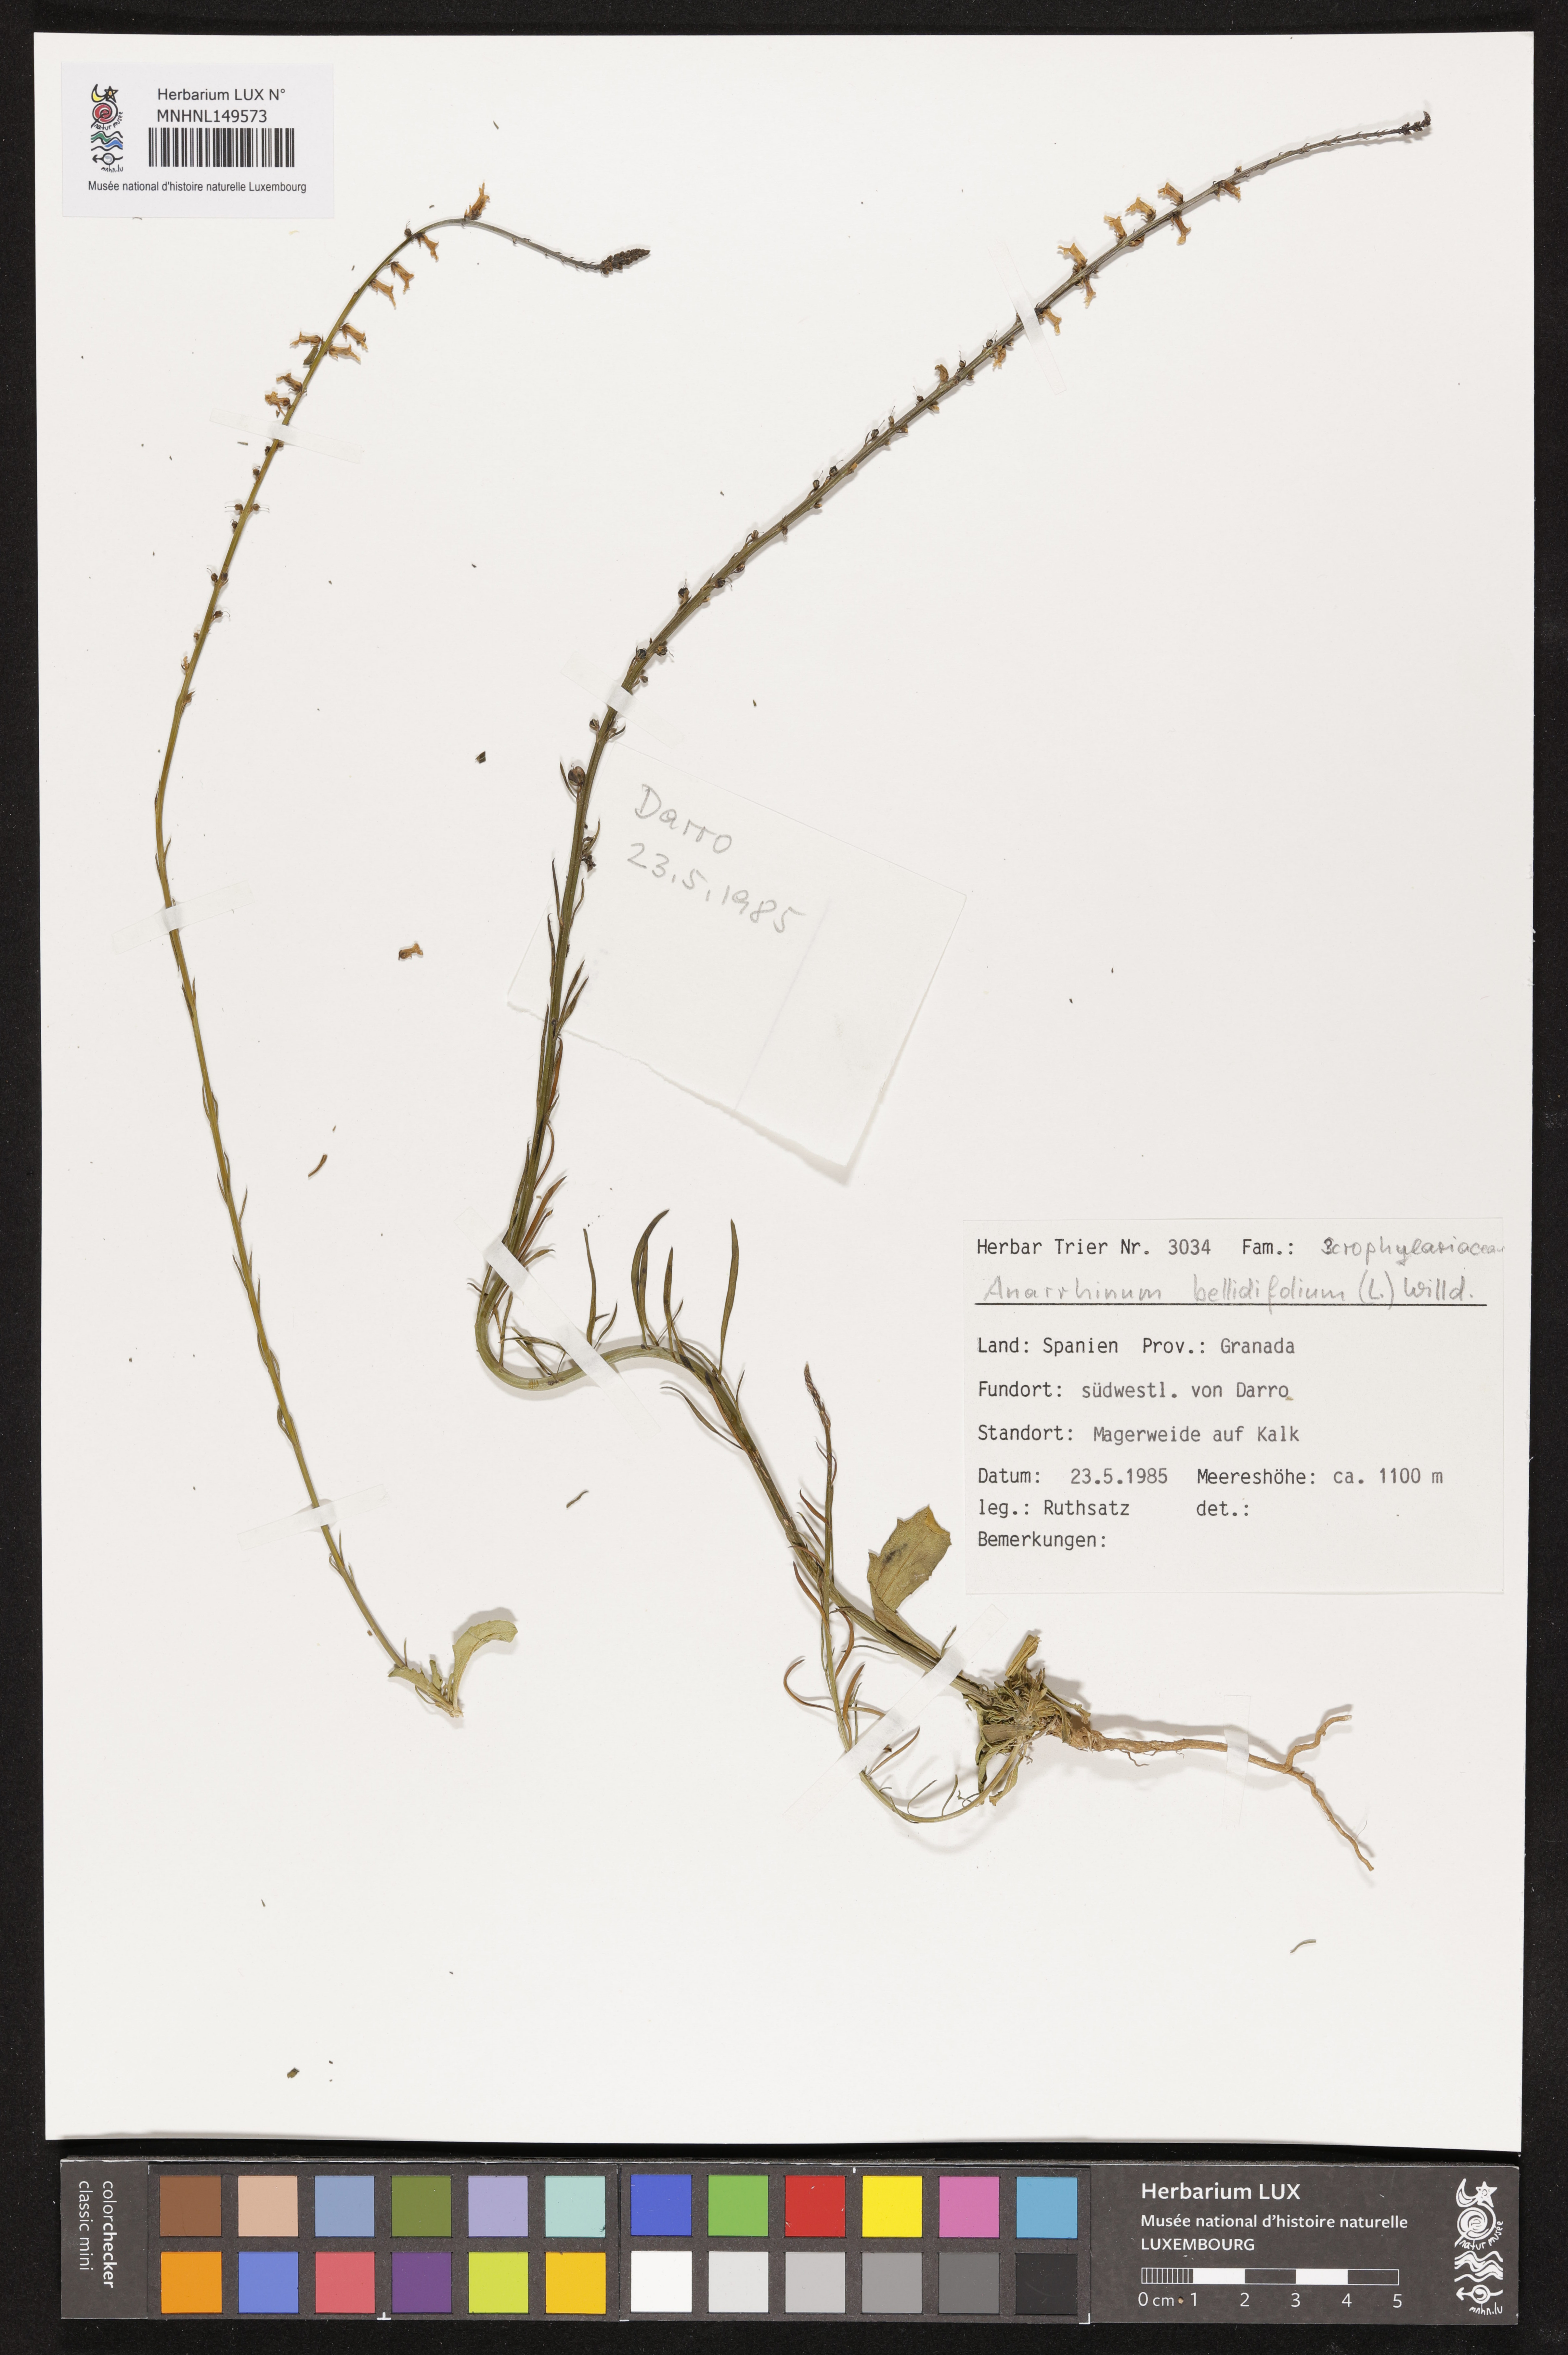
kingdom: Plantae
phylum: Tracheophyta
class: Magnoliopsida
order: Lamiales
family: Plantaginaceae
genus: Anarrhinum
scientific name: Anarrhinum bellidifolium
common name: Daisy-leaved toadflax
